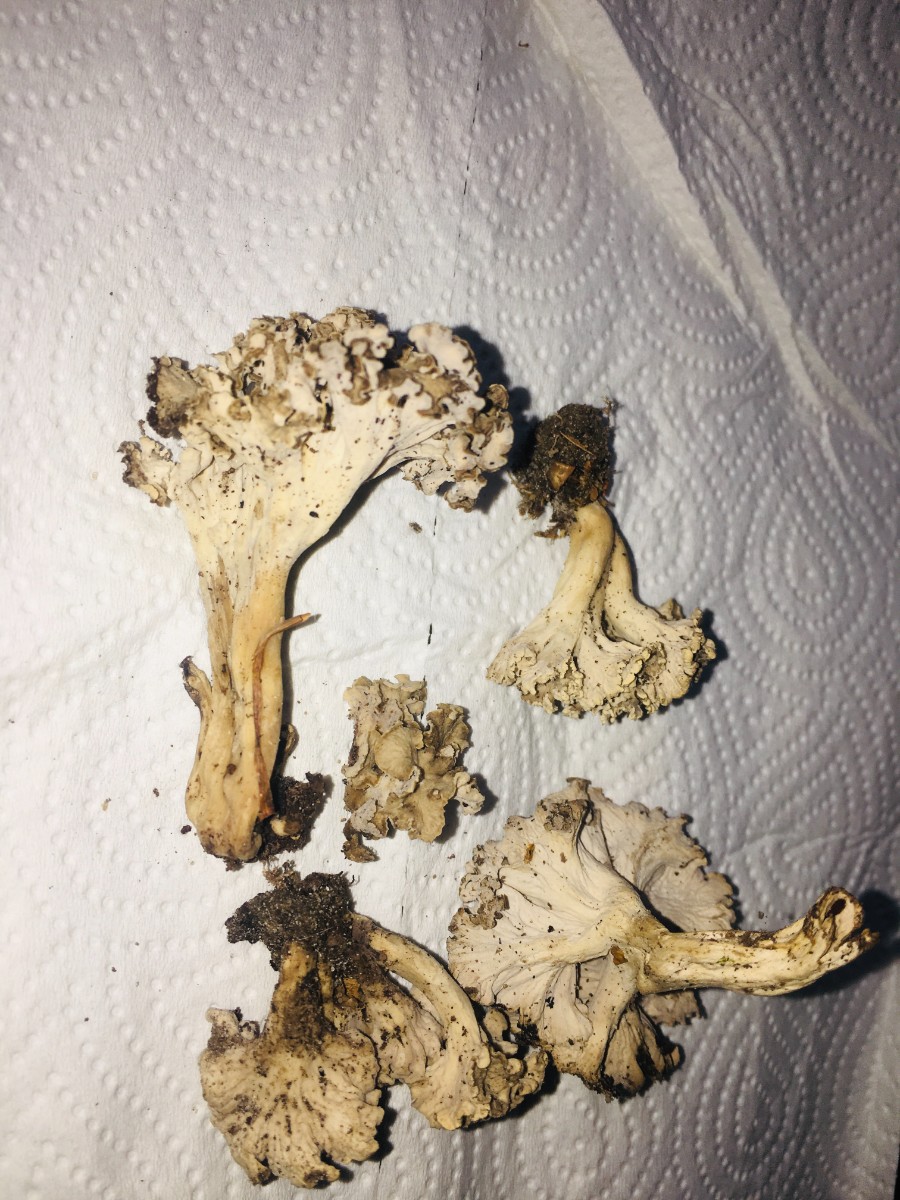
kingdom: Fungi
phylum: Basidiomycota
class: Agaricomycetes
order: Cantharellales
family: Hydnaceae
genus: Craterellus
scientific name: Craterellus undulatus
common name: liden kantarel
